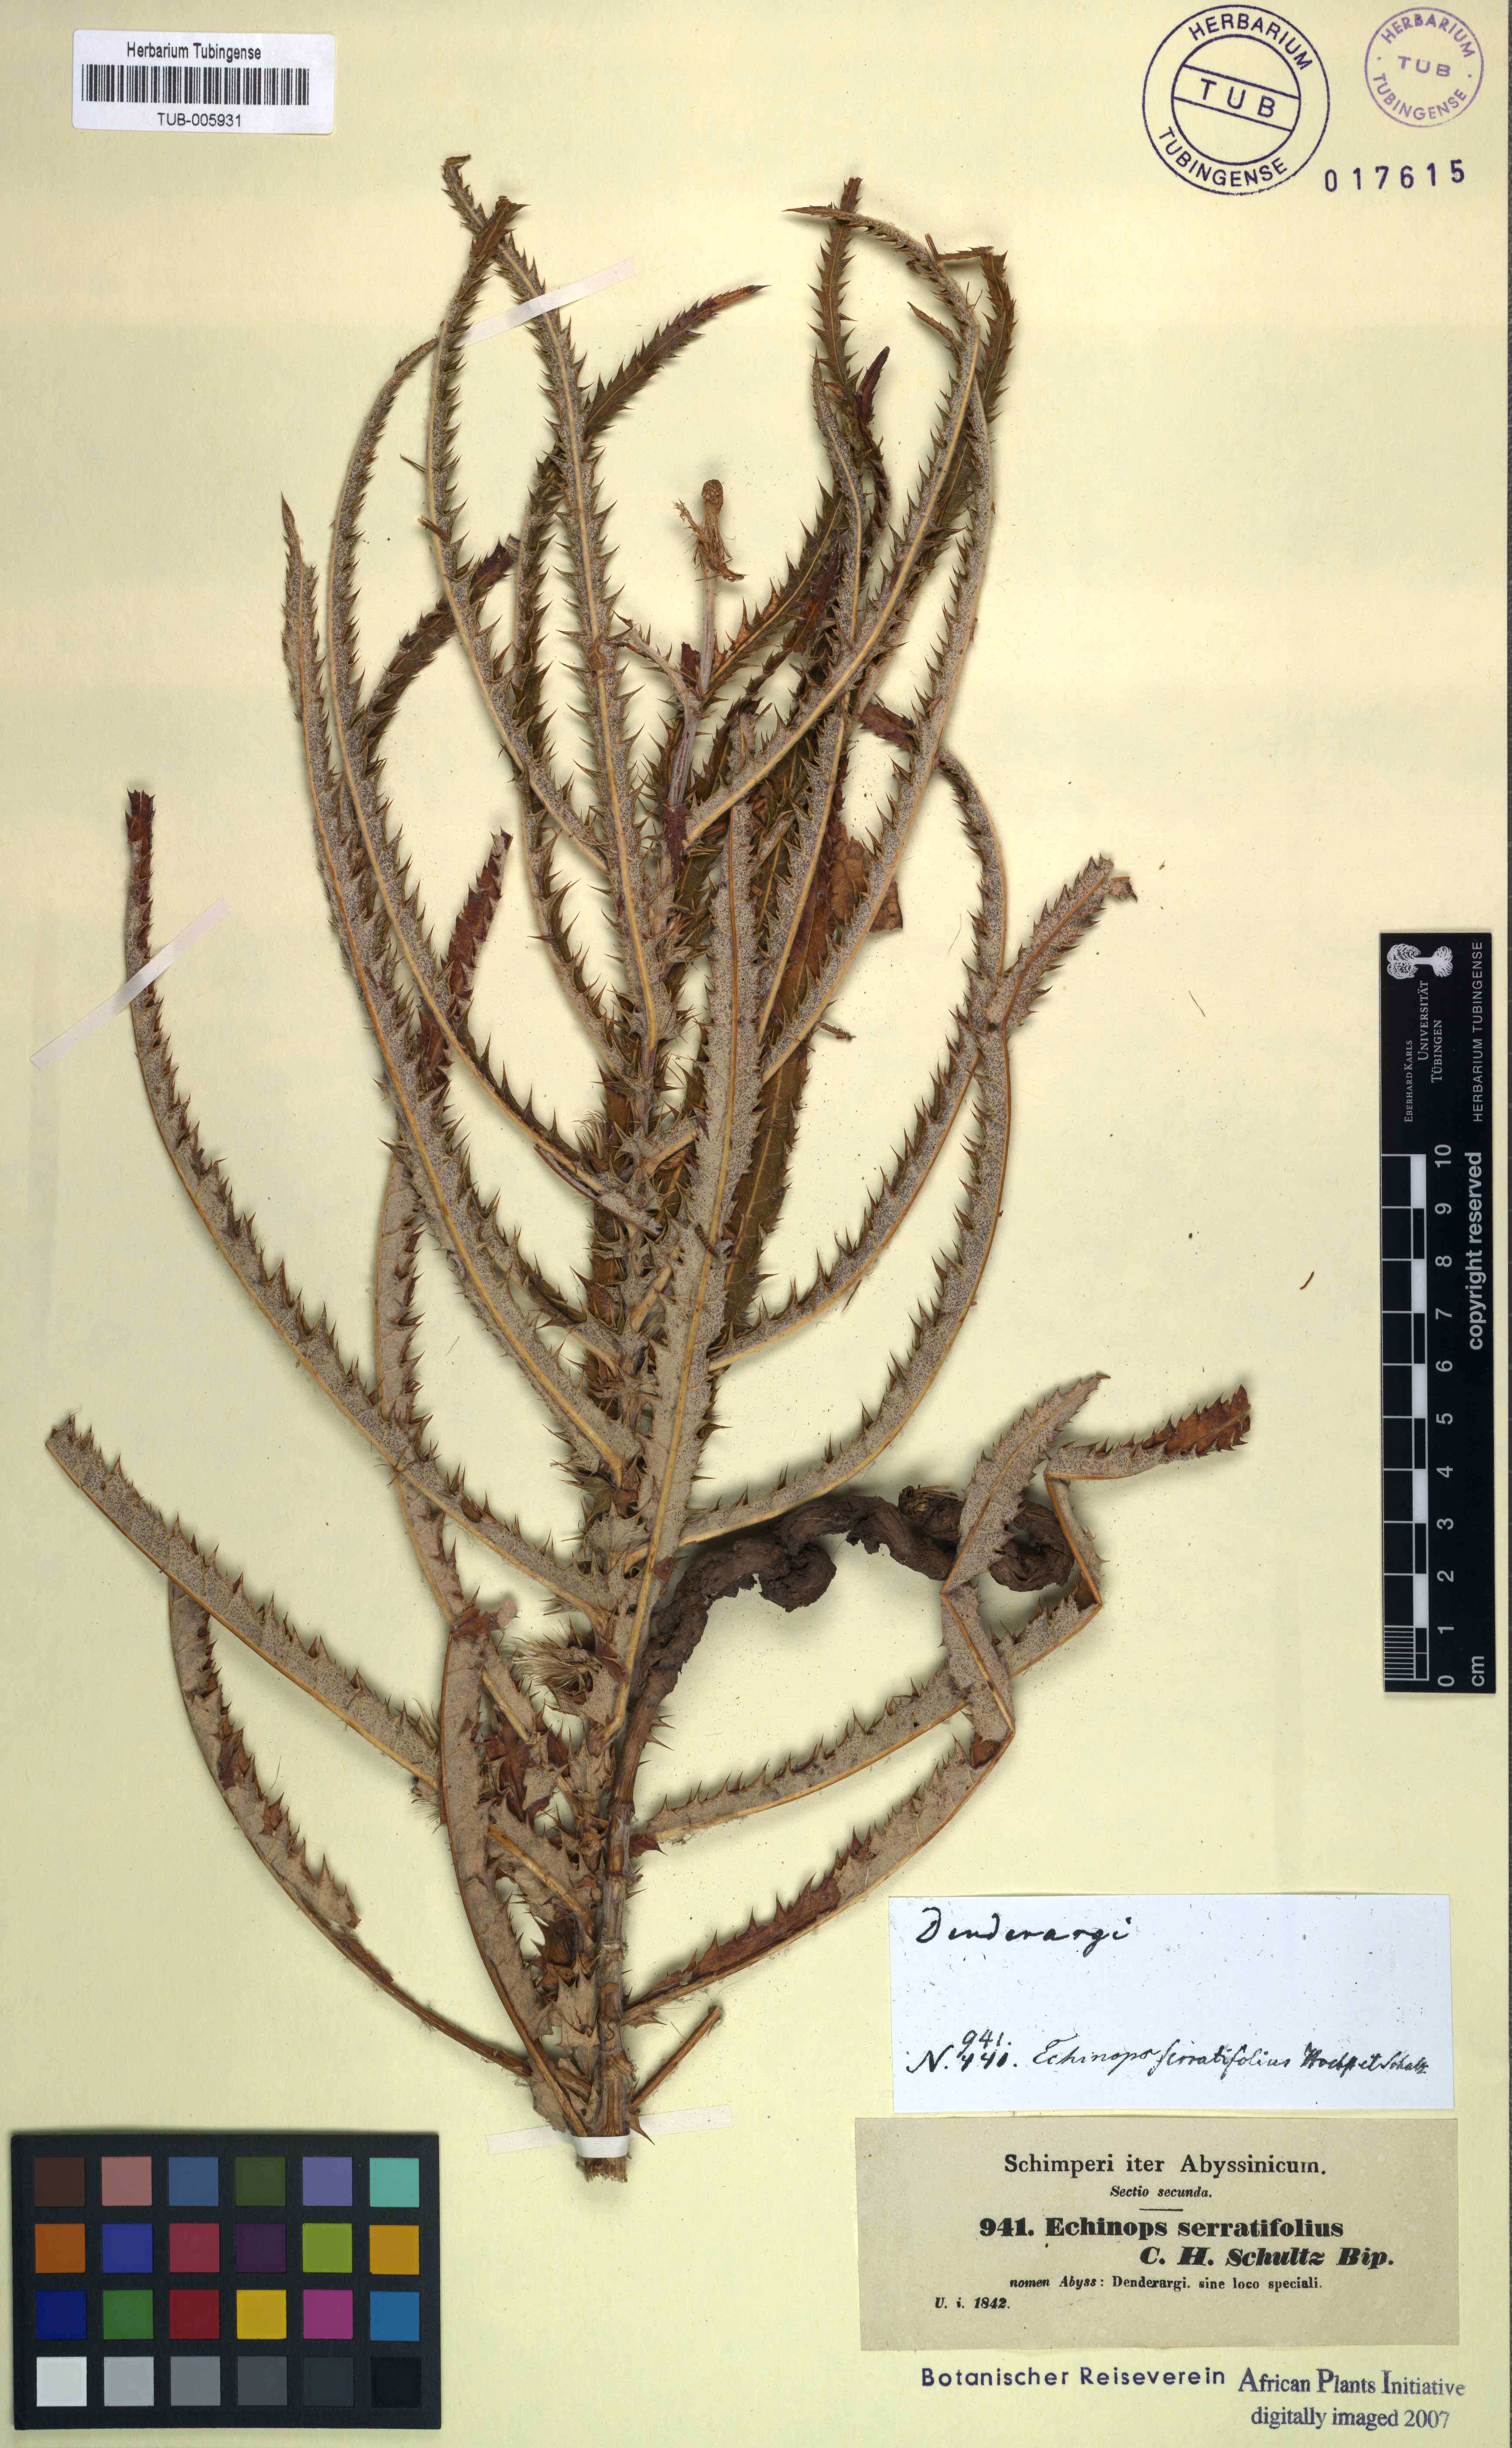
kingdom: Plantae
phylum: Tracheophyta
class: Magnoliopsida
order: Asterales
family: Asteraceae
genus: Echinops
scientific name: Echinops longifolius
